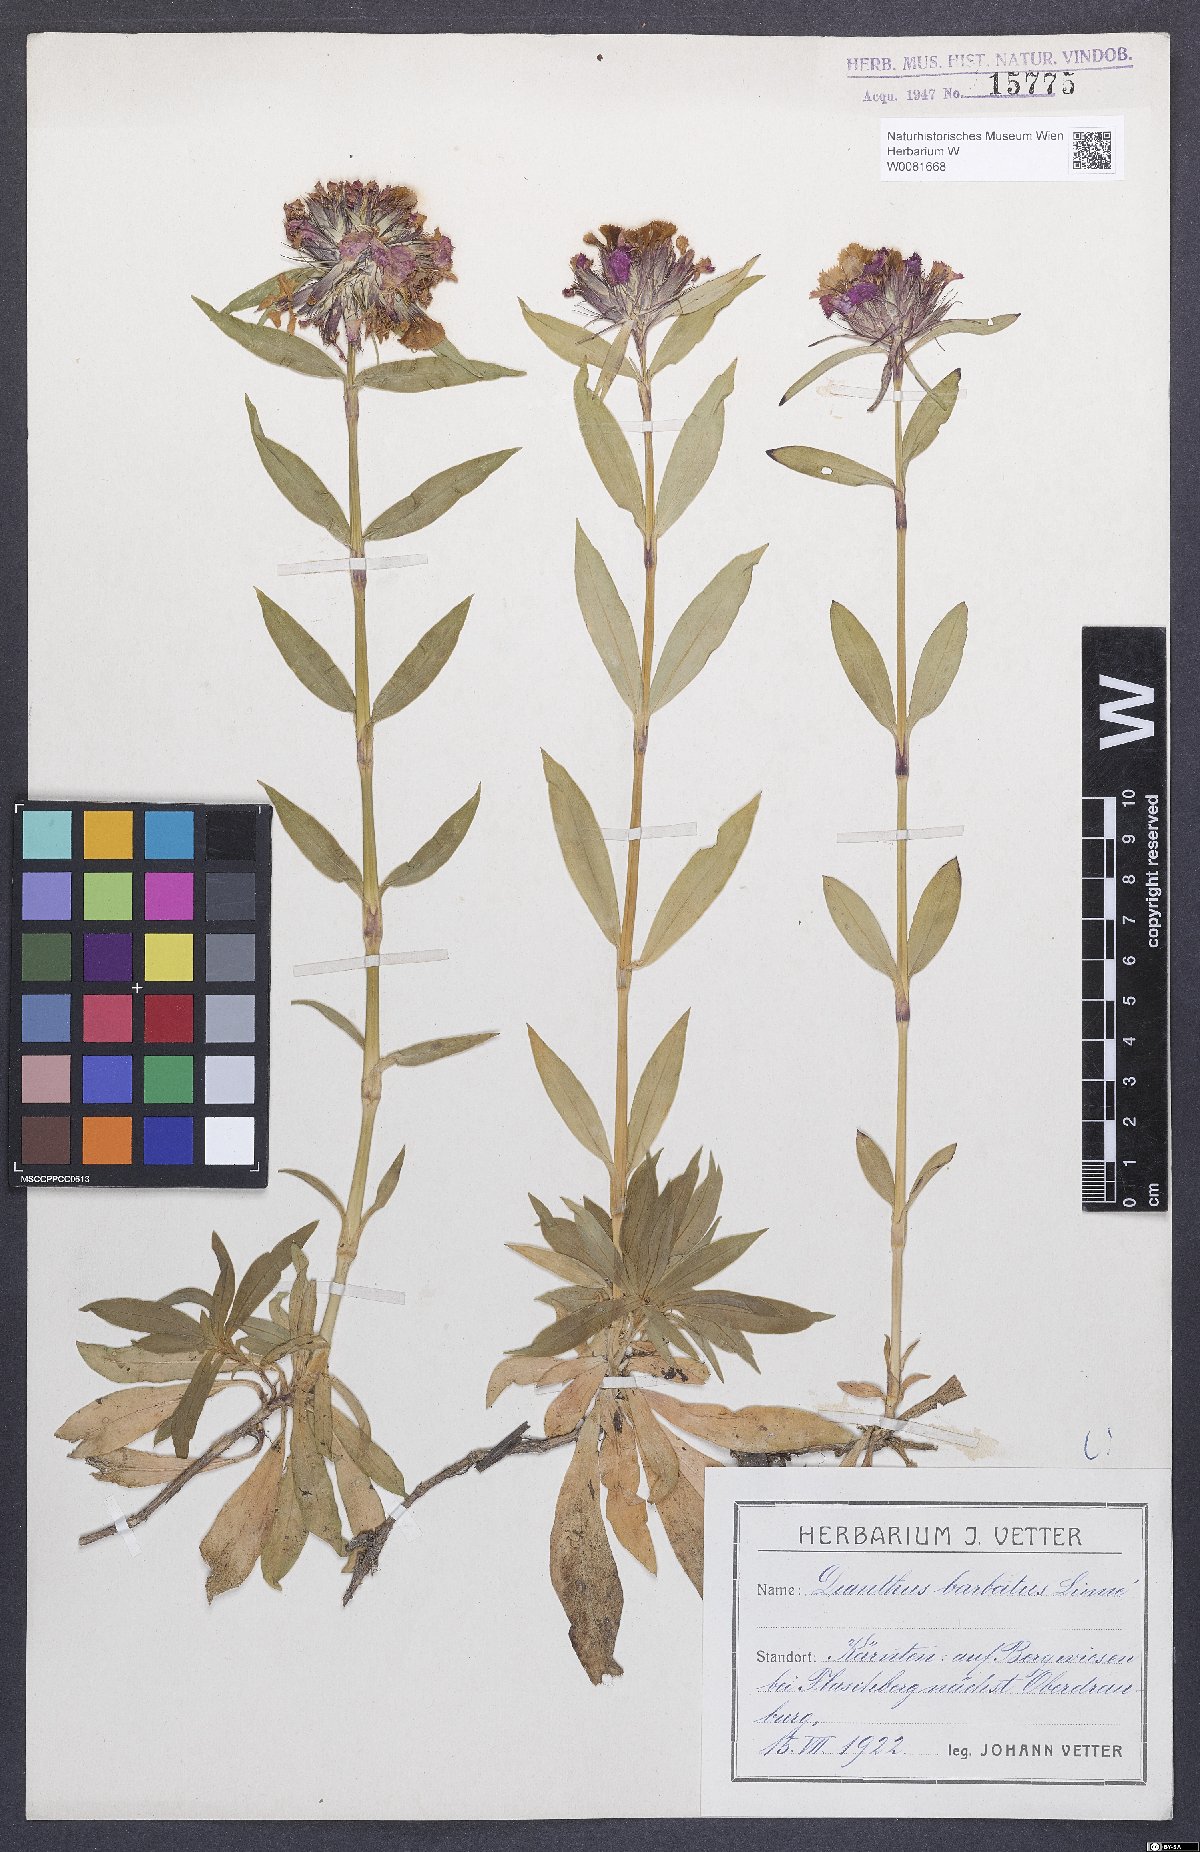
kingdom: Plantae
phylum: Tracheophyta
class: Magnoliopsida
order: Caryophyllales
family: Caryophyllaceae
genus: Dianthus
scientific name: Dianthus barbatus
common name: Sweet-william
